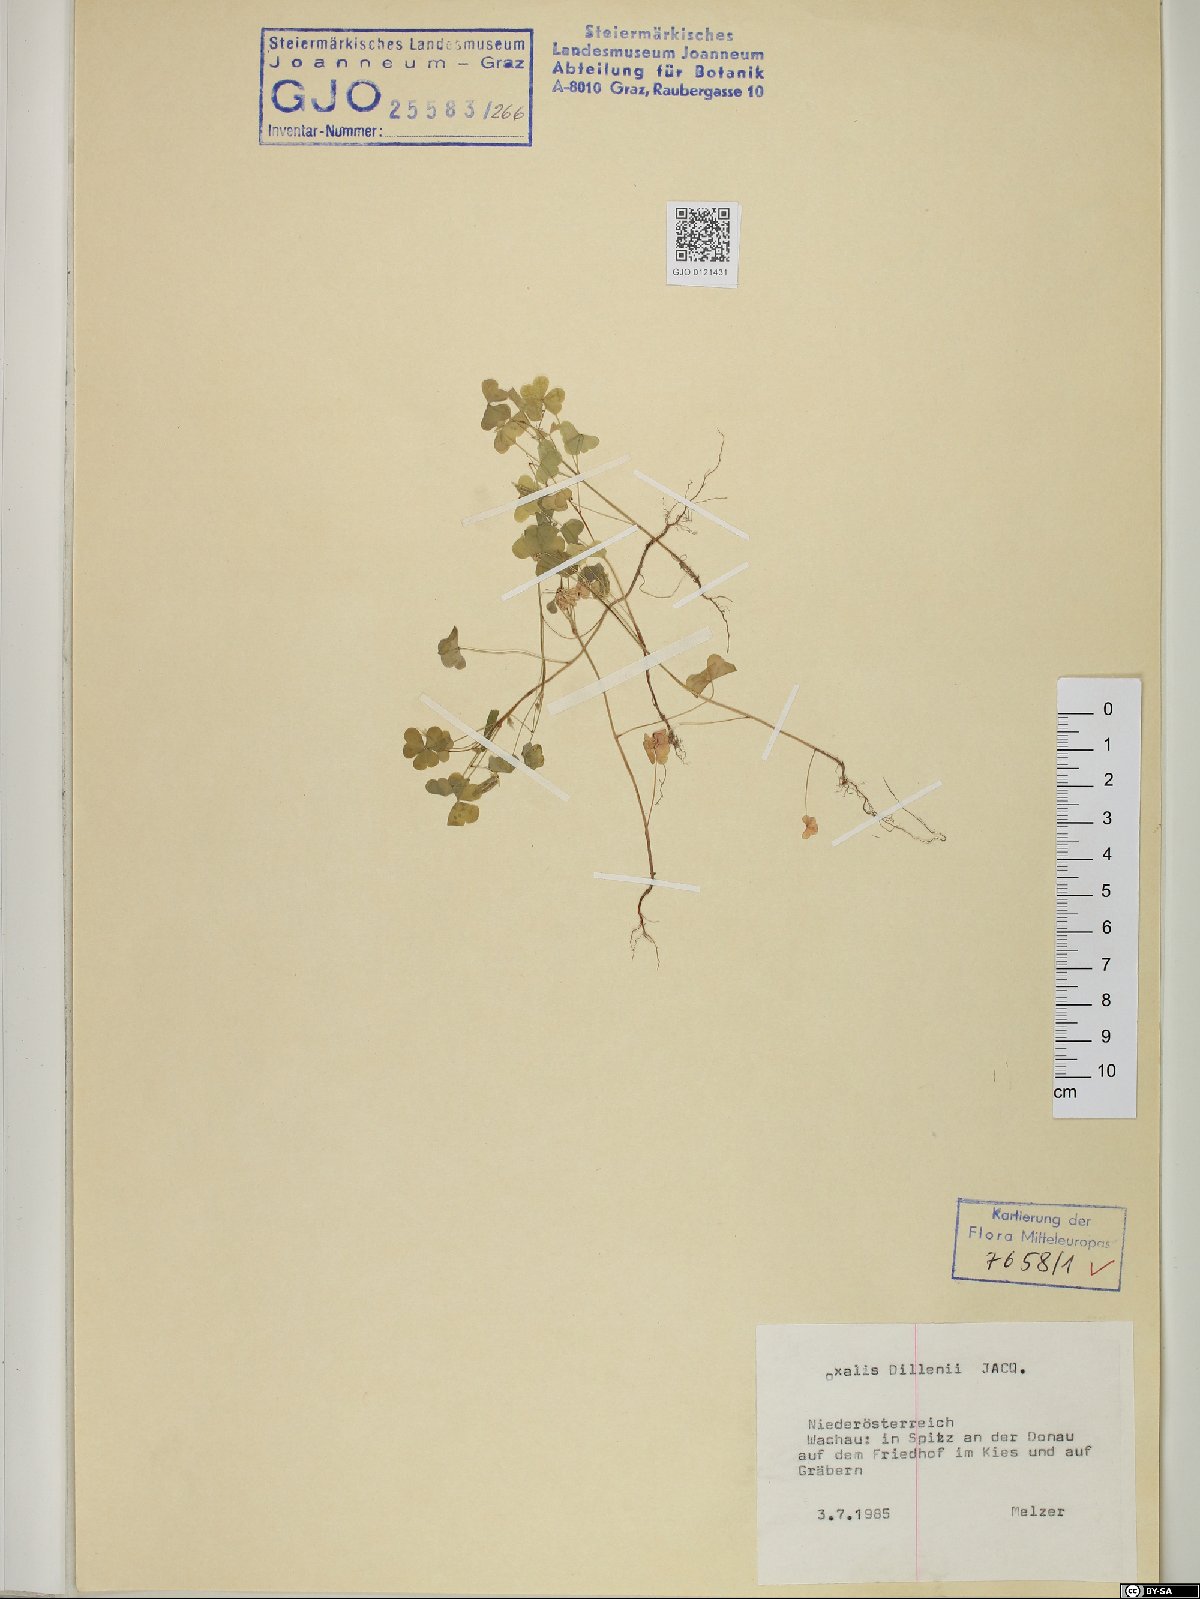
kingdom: Plantae
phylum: Tracheophyta
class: Magnoliopsida
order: Oxalidales
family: Oxalidaceae
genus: Oxalis
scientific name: Oxalis dillenii
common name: Sussex yellow-sorrel
